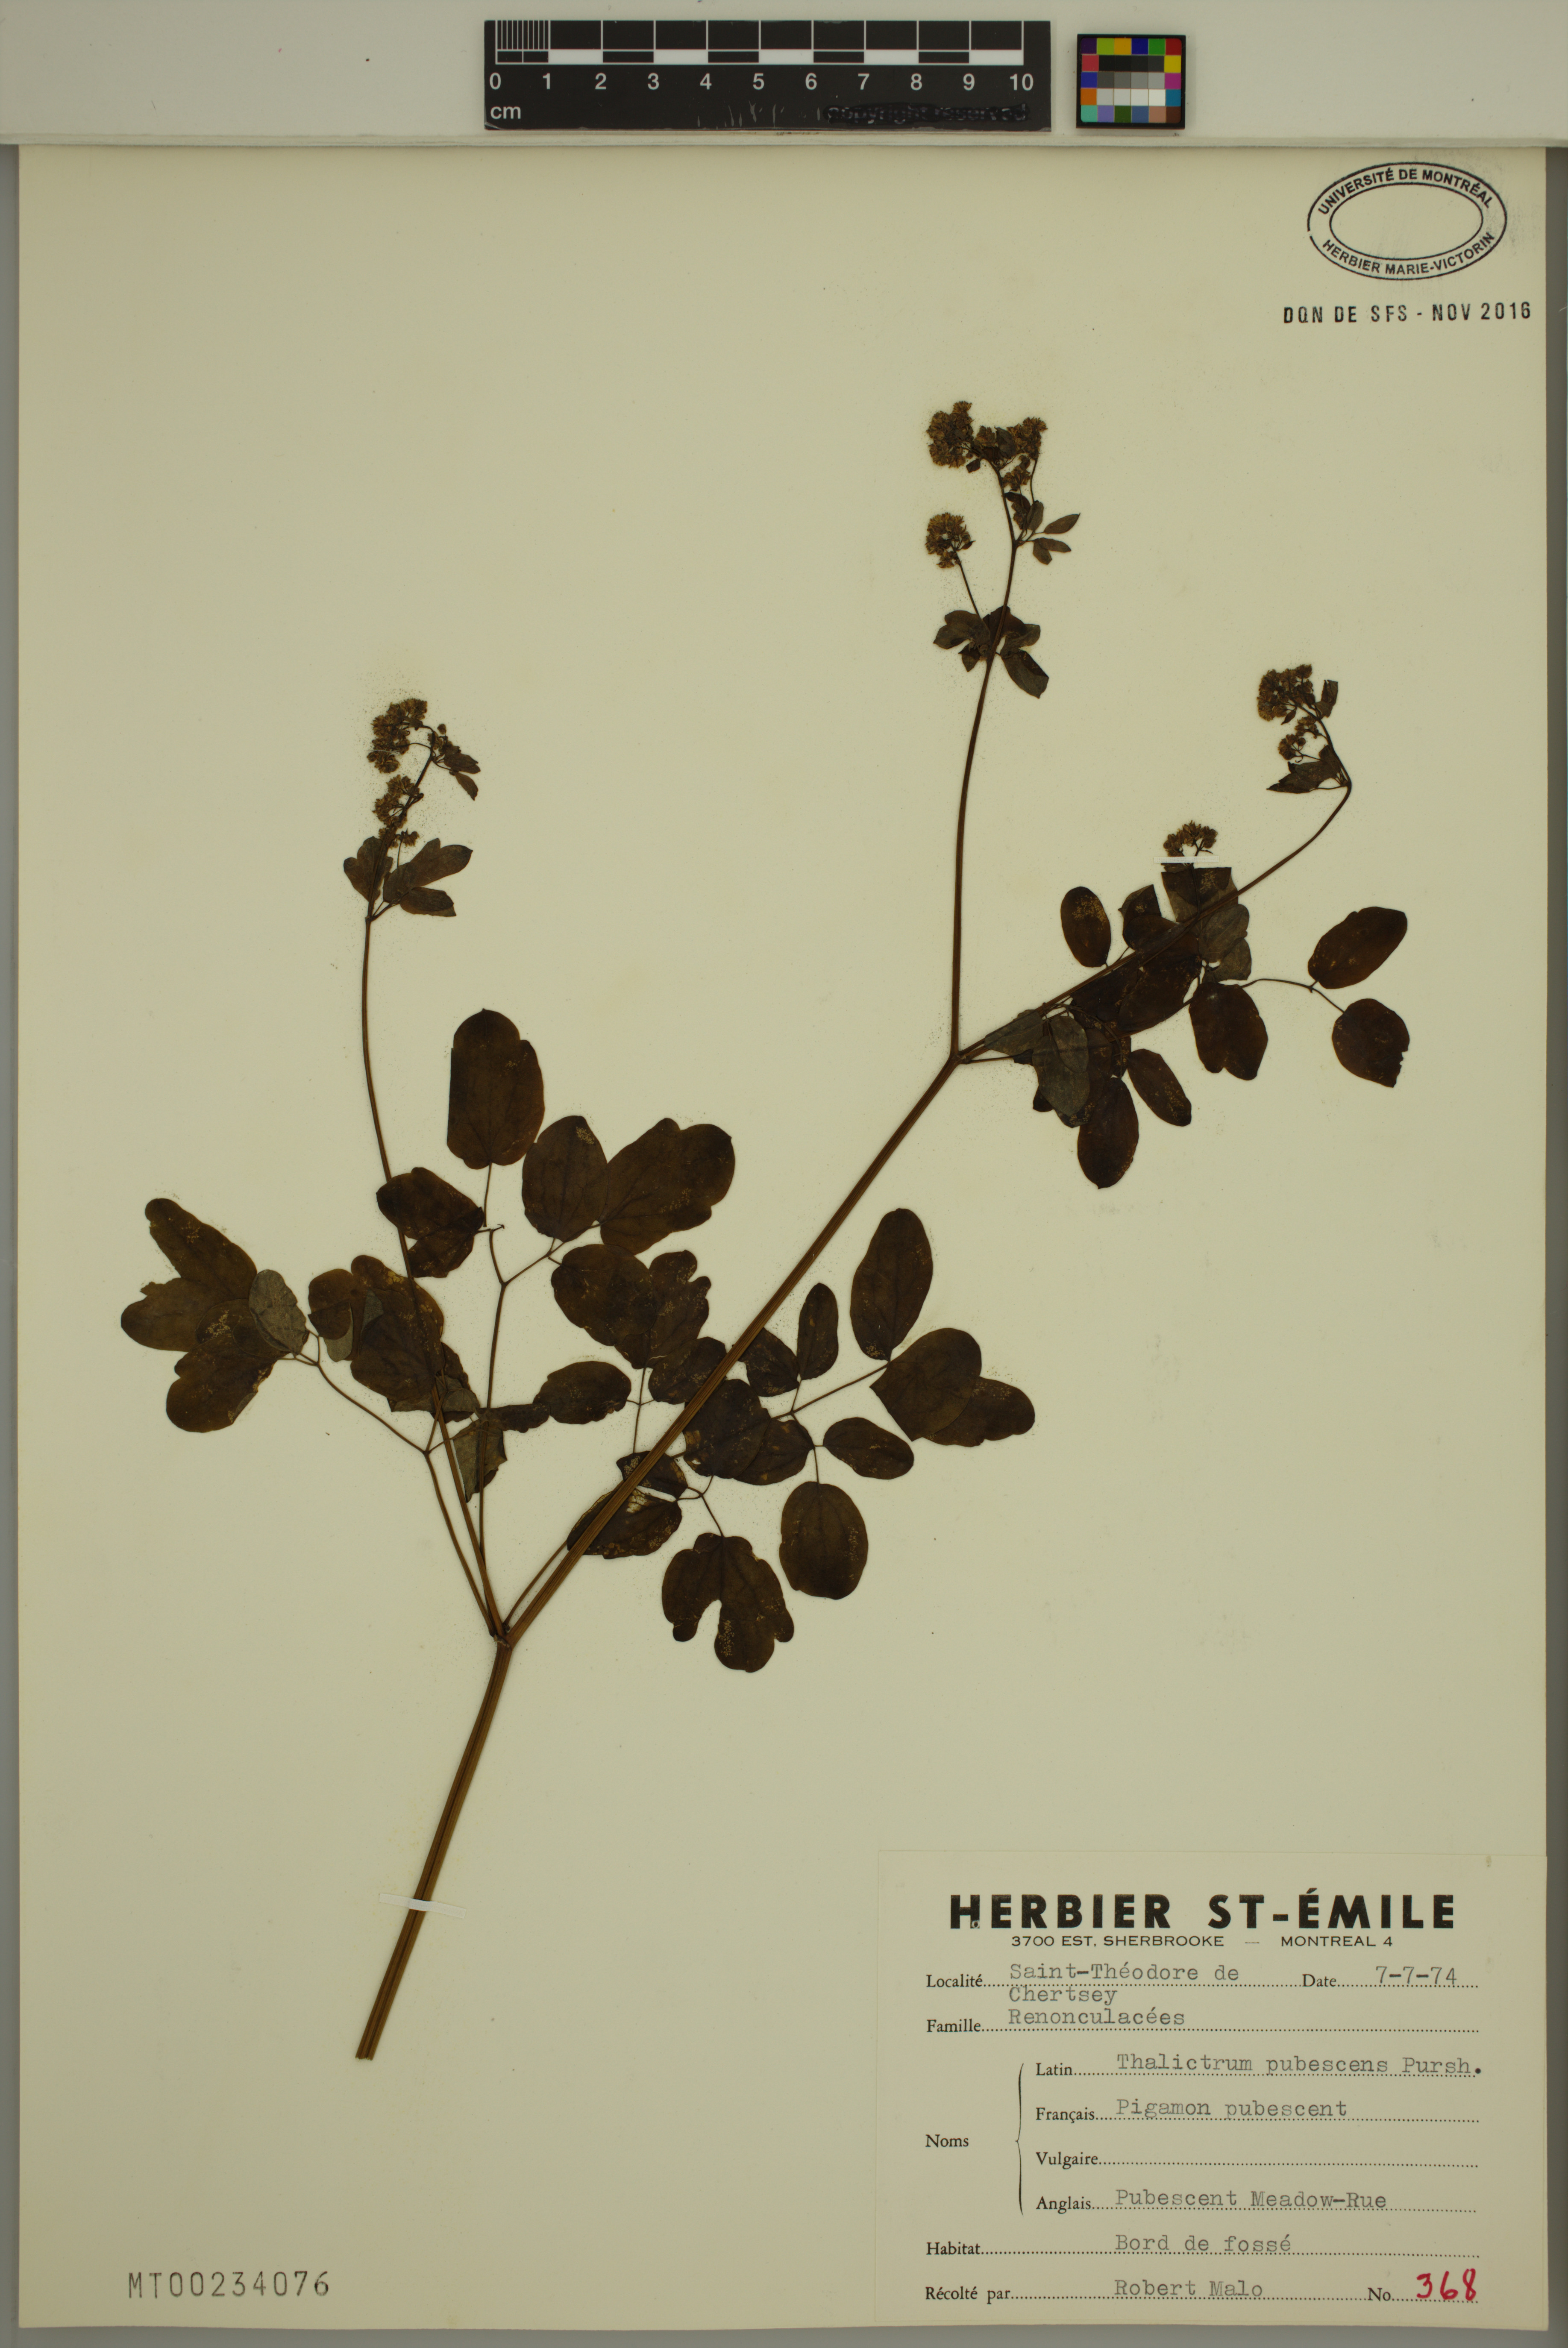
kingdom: Plantae
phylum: Tracheophyta
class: Magnoliopsida
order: Ranunculales
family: Ranunculaceae
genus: Thalictrum
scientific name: Thalictrum pubescens
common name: King-of-the-meadow
